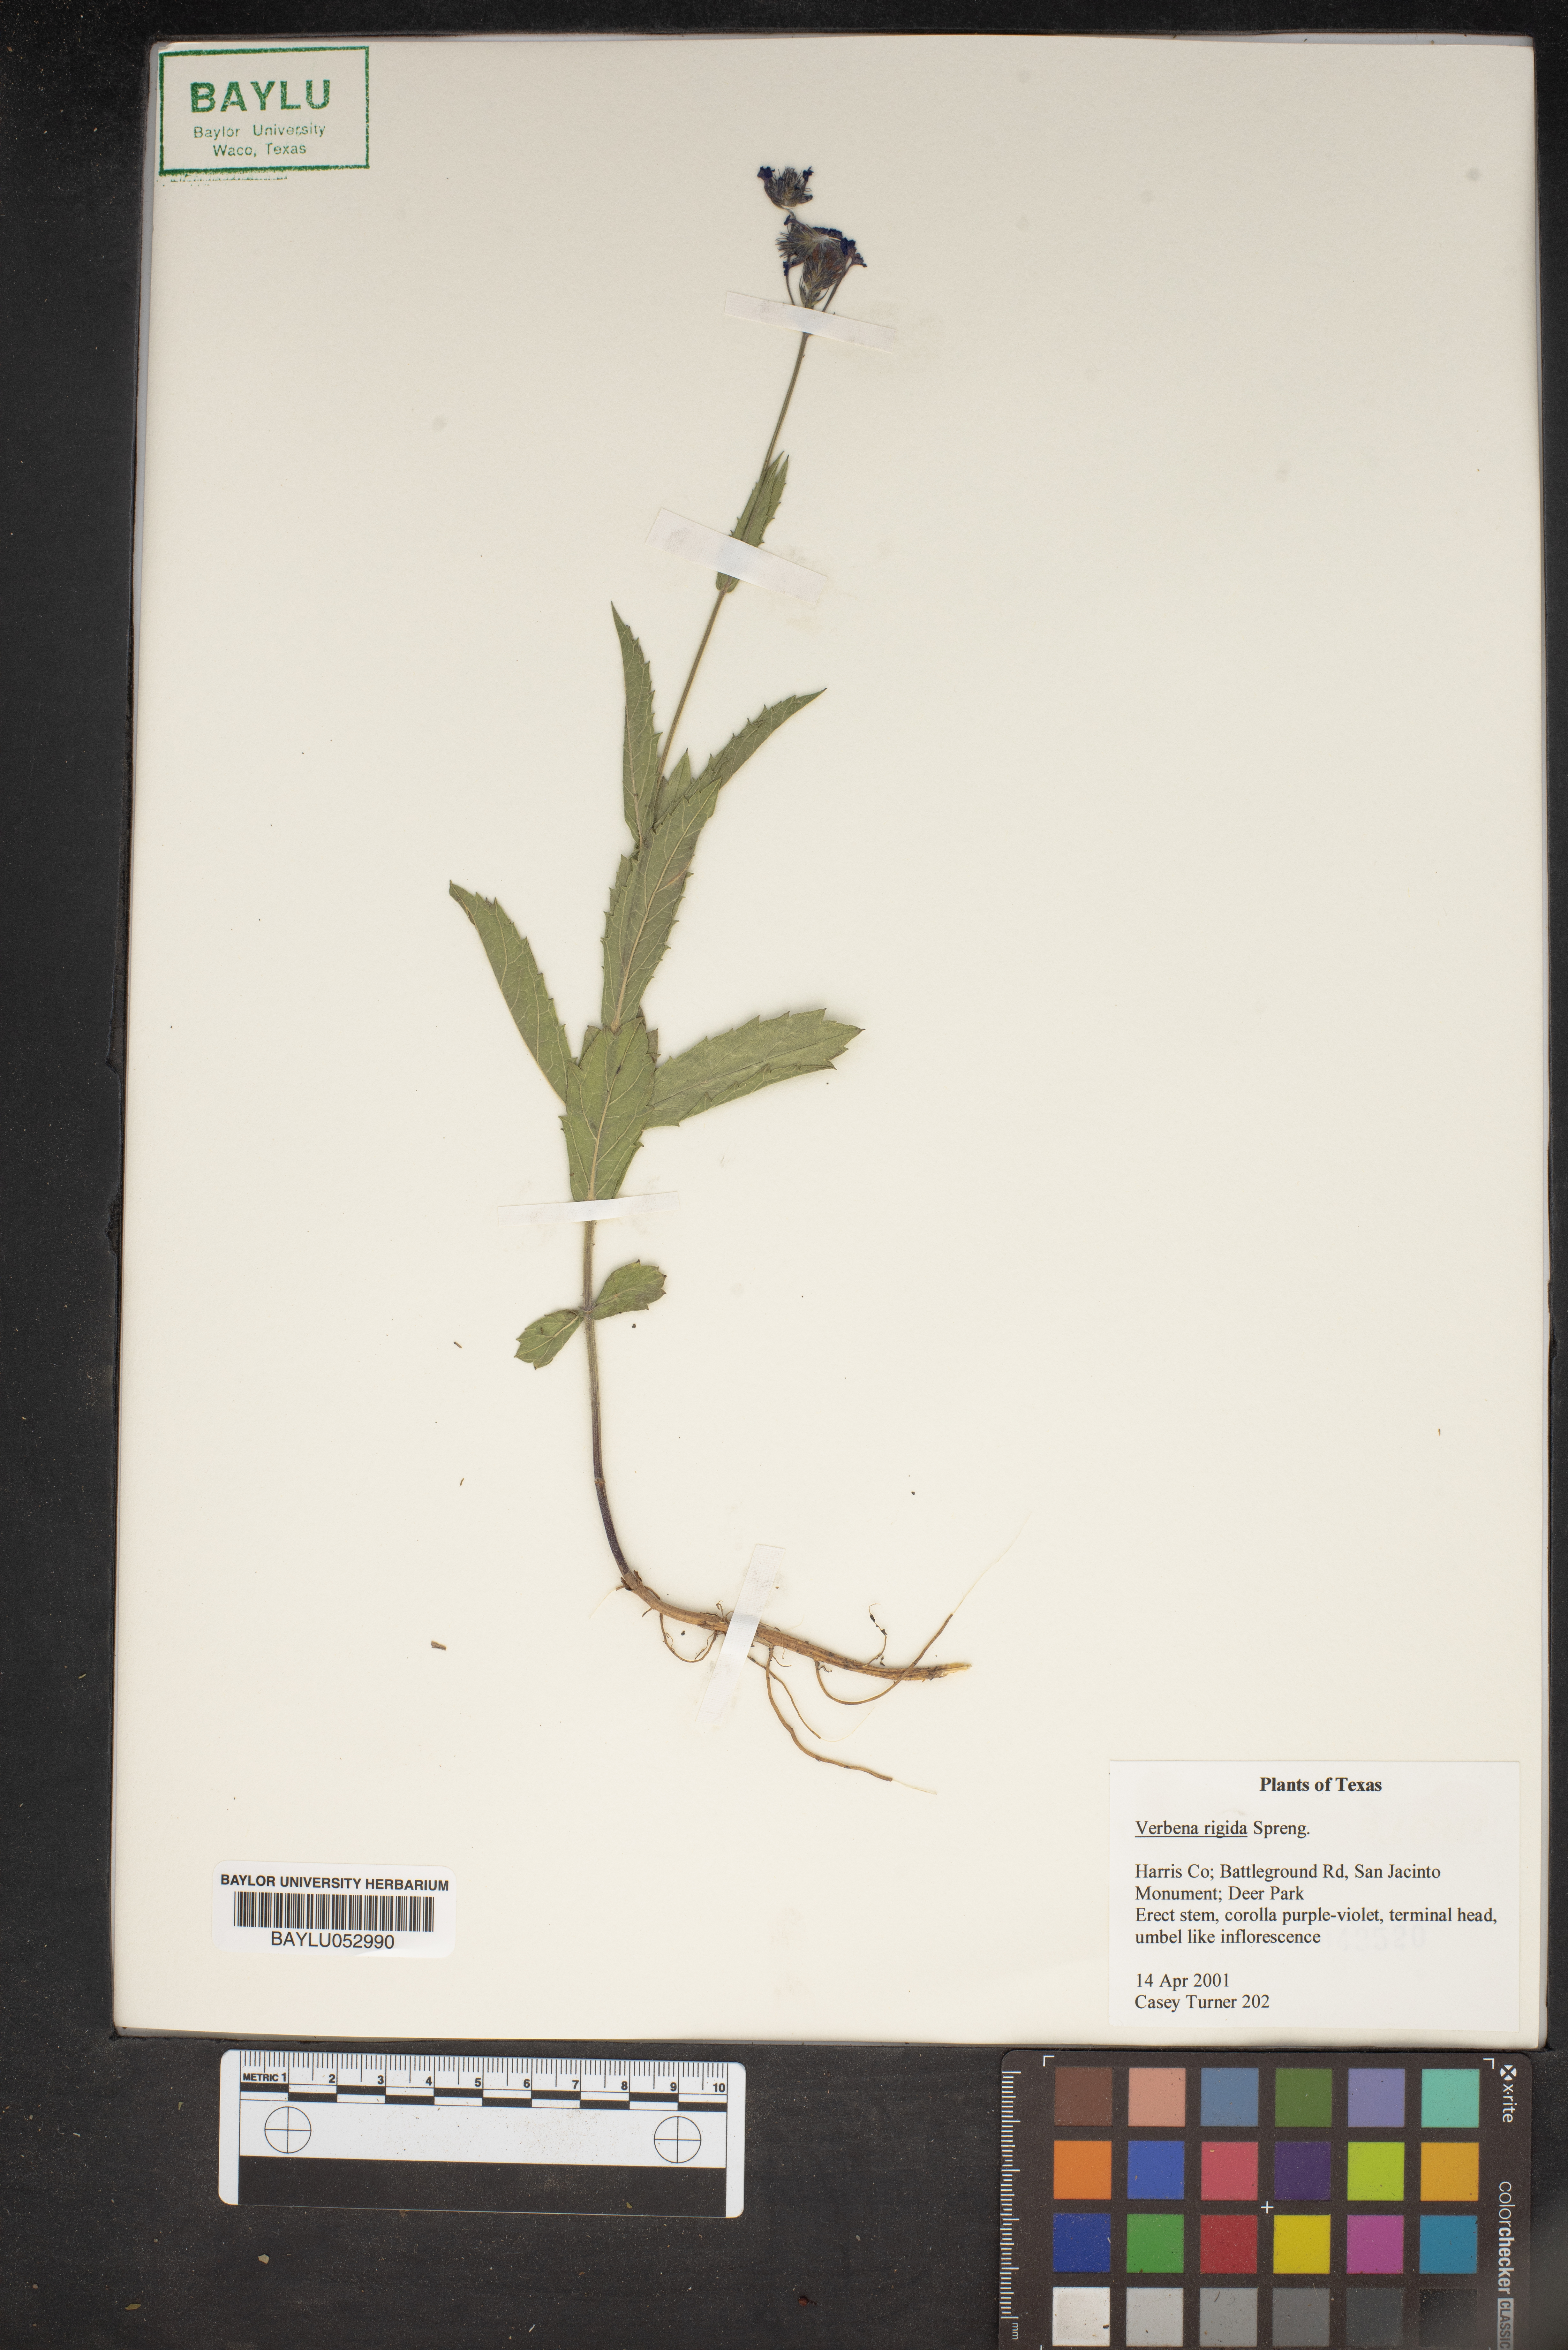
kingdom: Plantae
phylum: Tracheophyta
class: Magnoliopsida
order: Lamiales
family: Verbenaceae
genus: Verbena
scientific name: Verbena rigida
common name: Slender vervain
